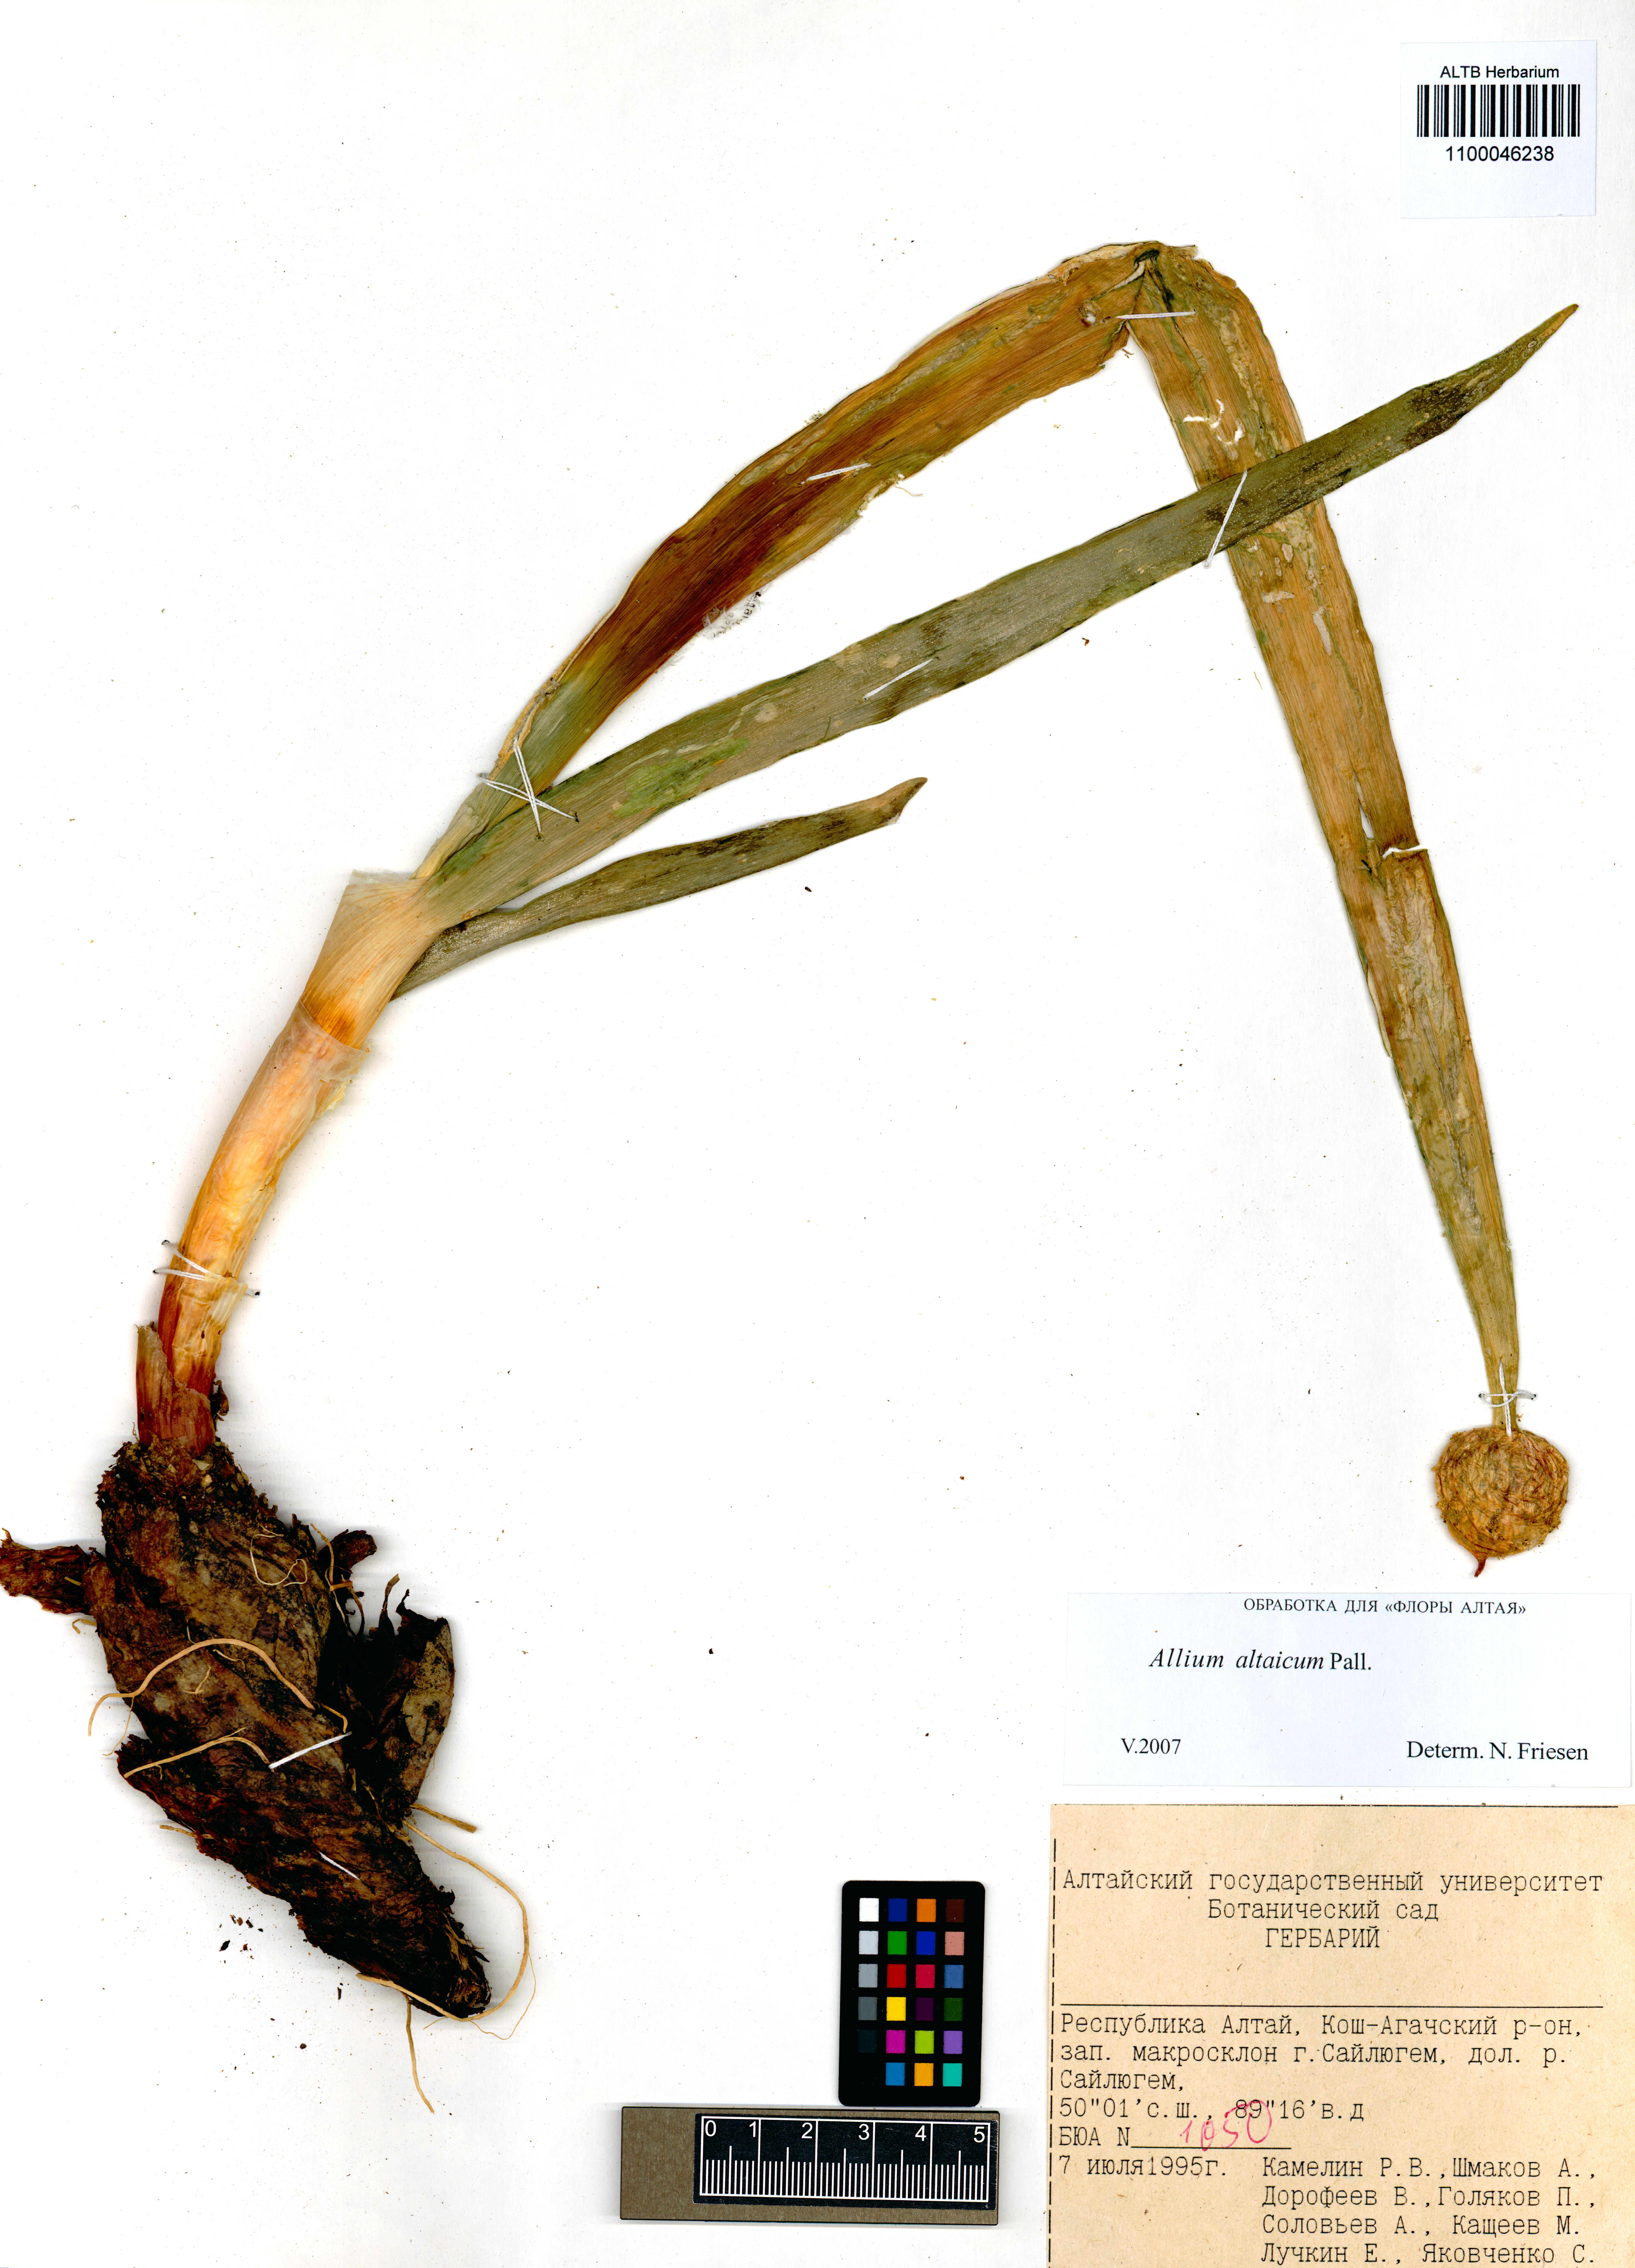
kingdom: Plantae
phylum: Tracheophyta
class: Liliopsida
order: Asparagales
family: Amaryllidaceae
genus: Allium
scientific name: Allium altaicum
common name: Altai onion
